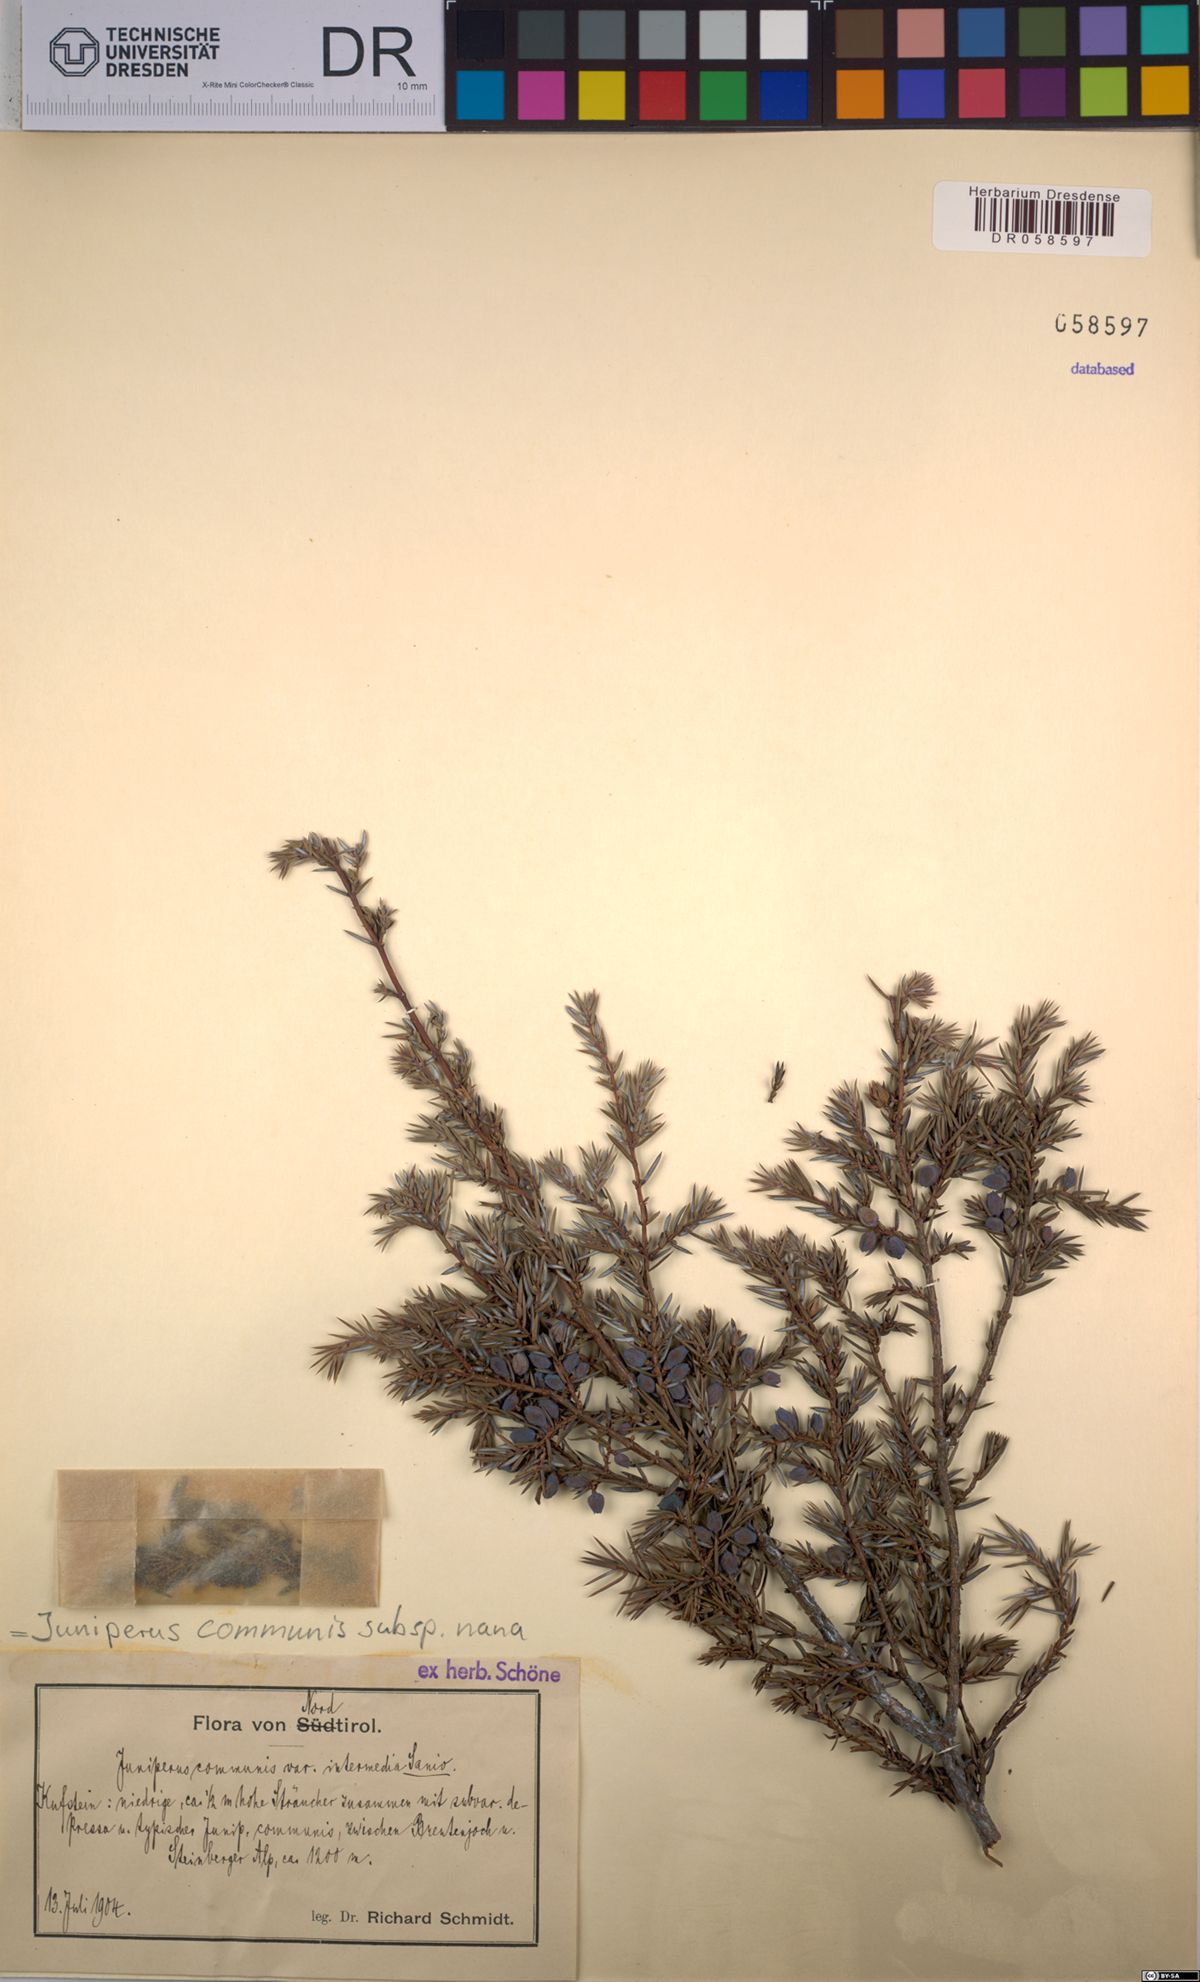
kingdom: Plantae
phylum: Tracheophyta
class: Pinopsida
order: Pinales
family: Cupressaceae
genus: Juniperus
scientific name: Juniperus communis
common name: Common juniper
